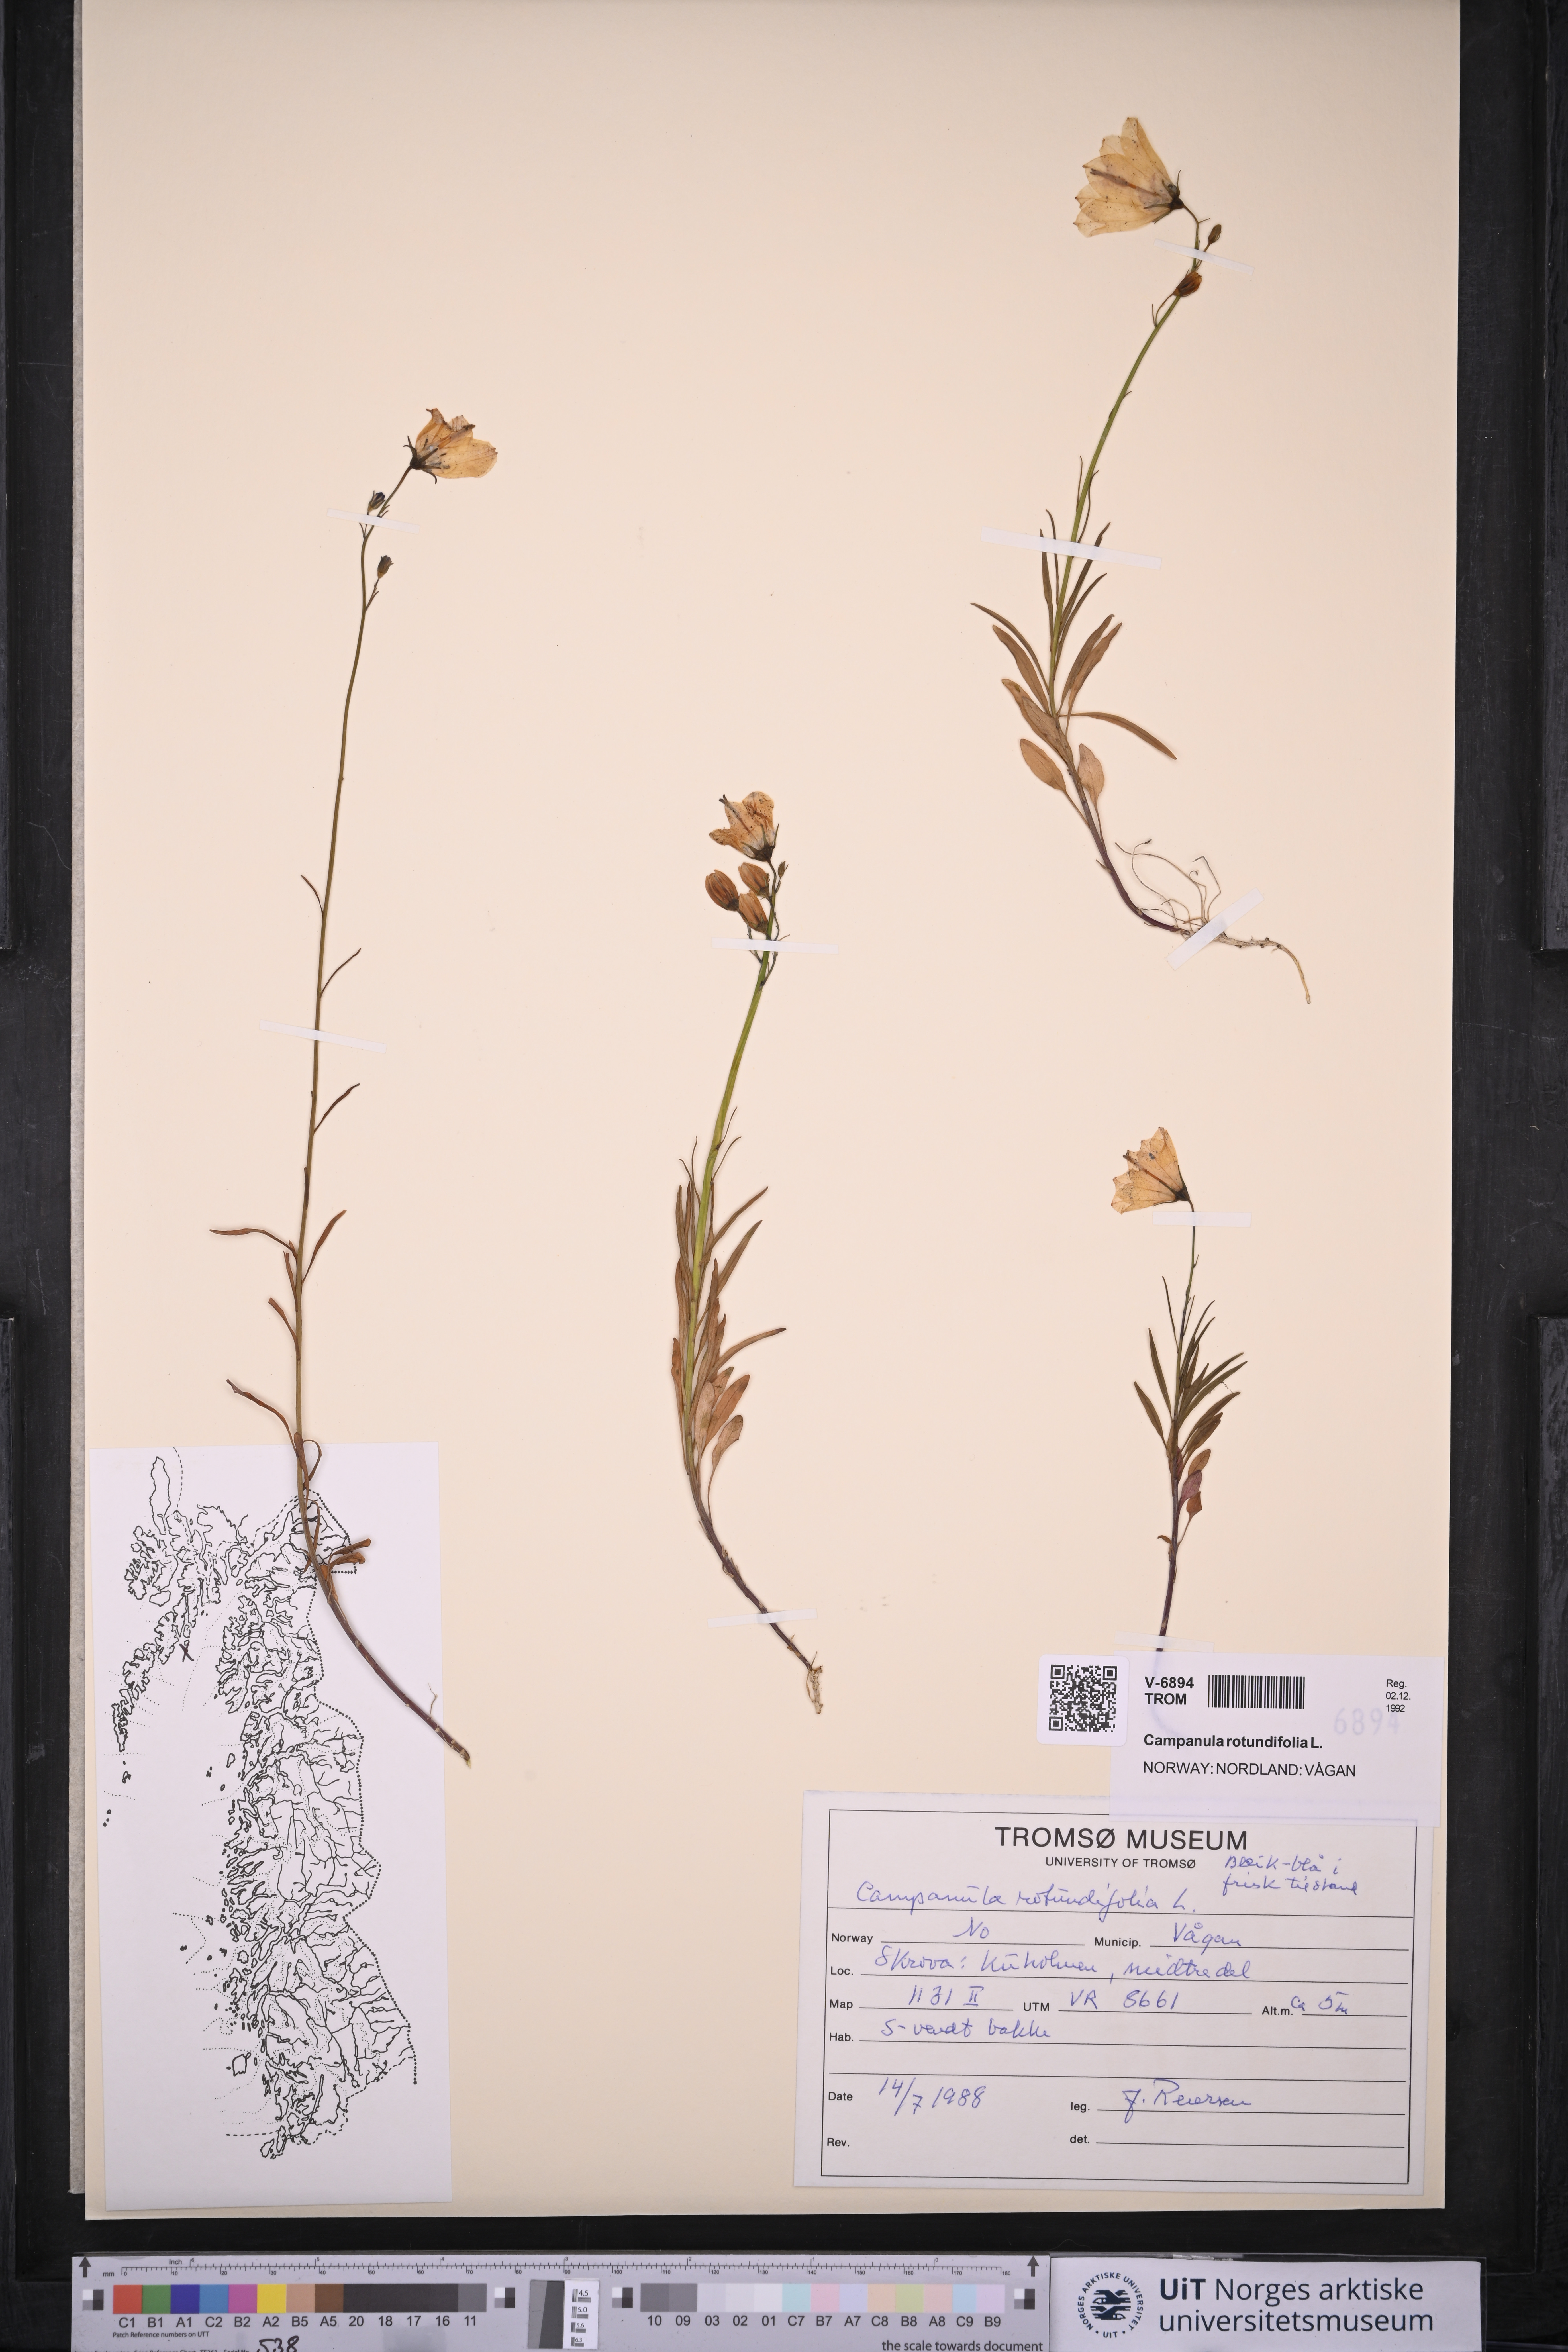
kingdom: Plantae
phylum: Tracheophyta
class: Magnoliopsida
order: Asterales
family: Campanulaceae
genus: Campanula
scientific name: Campanula rotundifolia
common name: Harebell
